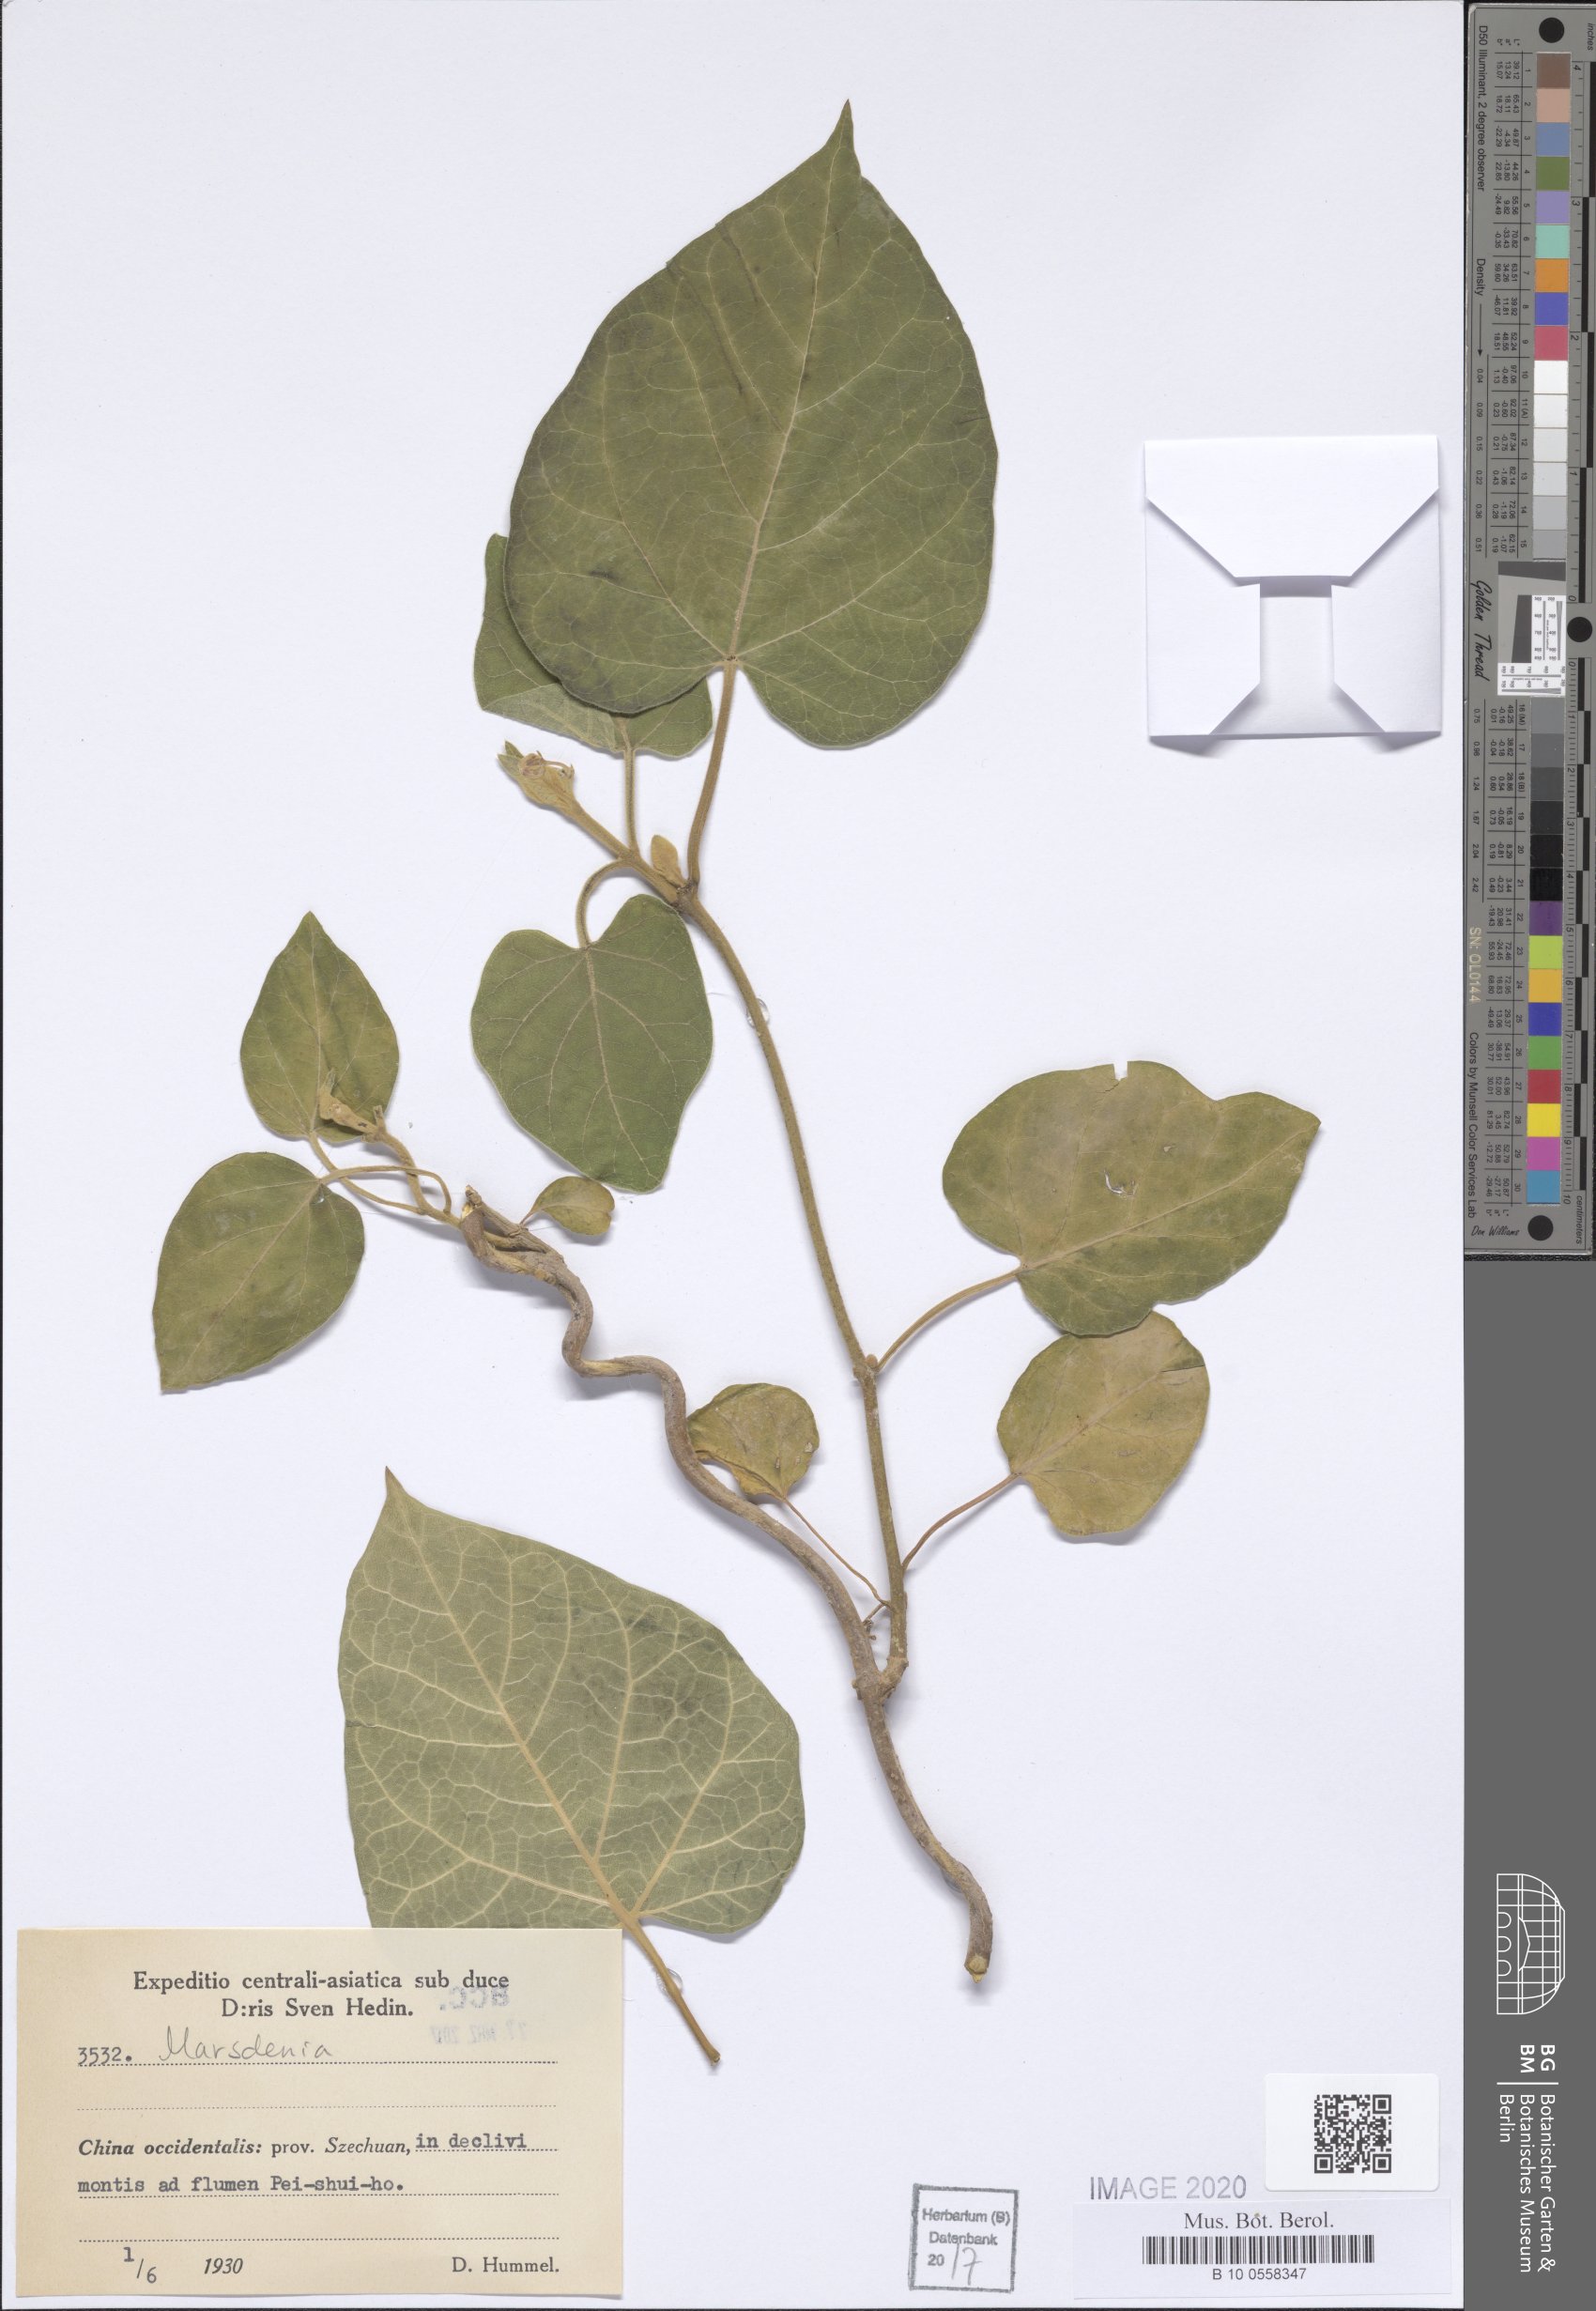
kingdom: Plantae
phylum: Tracheophyta
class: Magnoliopsida
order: Gentianales
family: Apocynaceae
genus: Marsdenia
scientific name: Marsdenia
